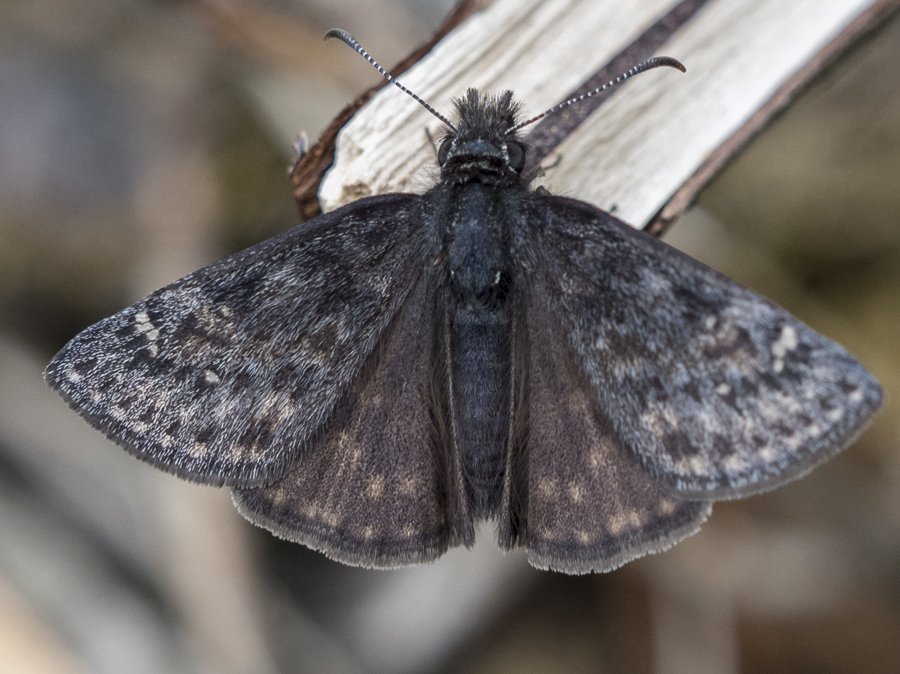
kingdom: Animalia
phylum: Arthropoda
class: Insecta
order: Lepidoptera
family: Hesperiidae
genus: Gesta
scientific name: Gesta
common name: Persius Duskywing
